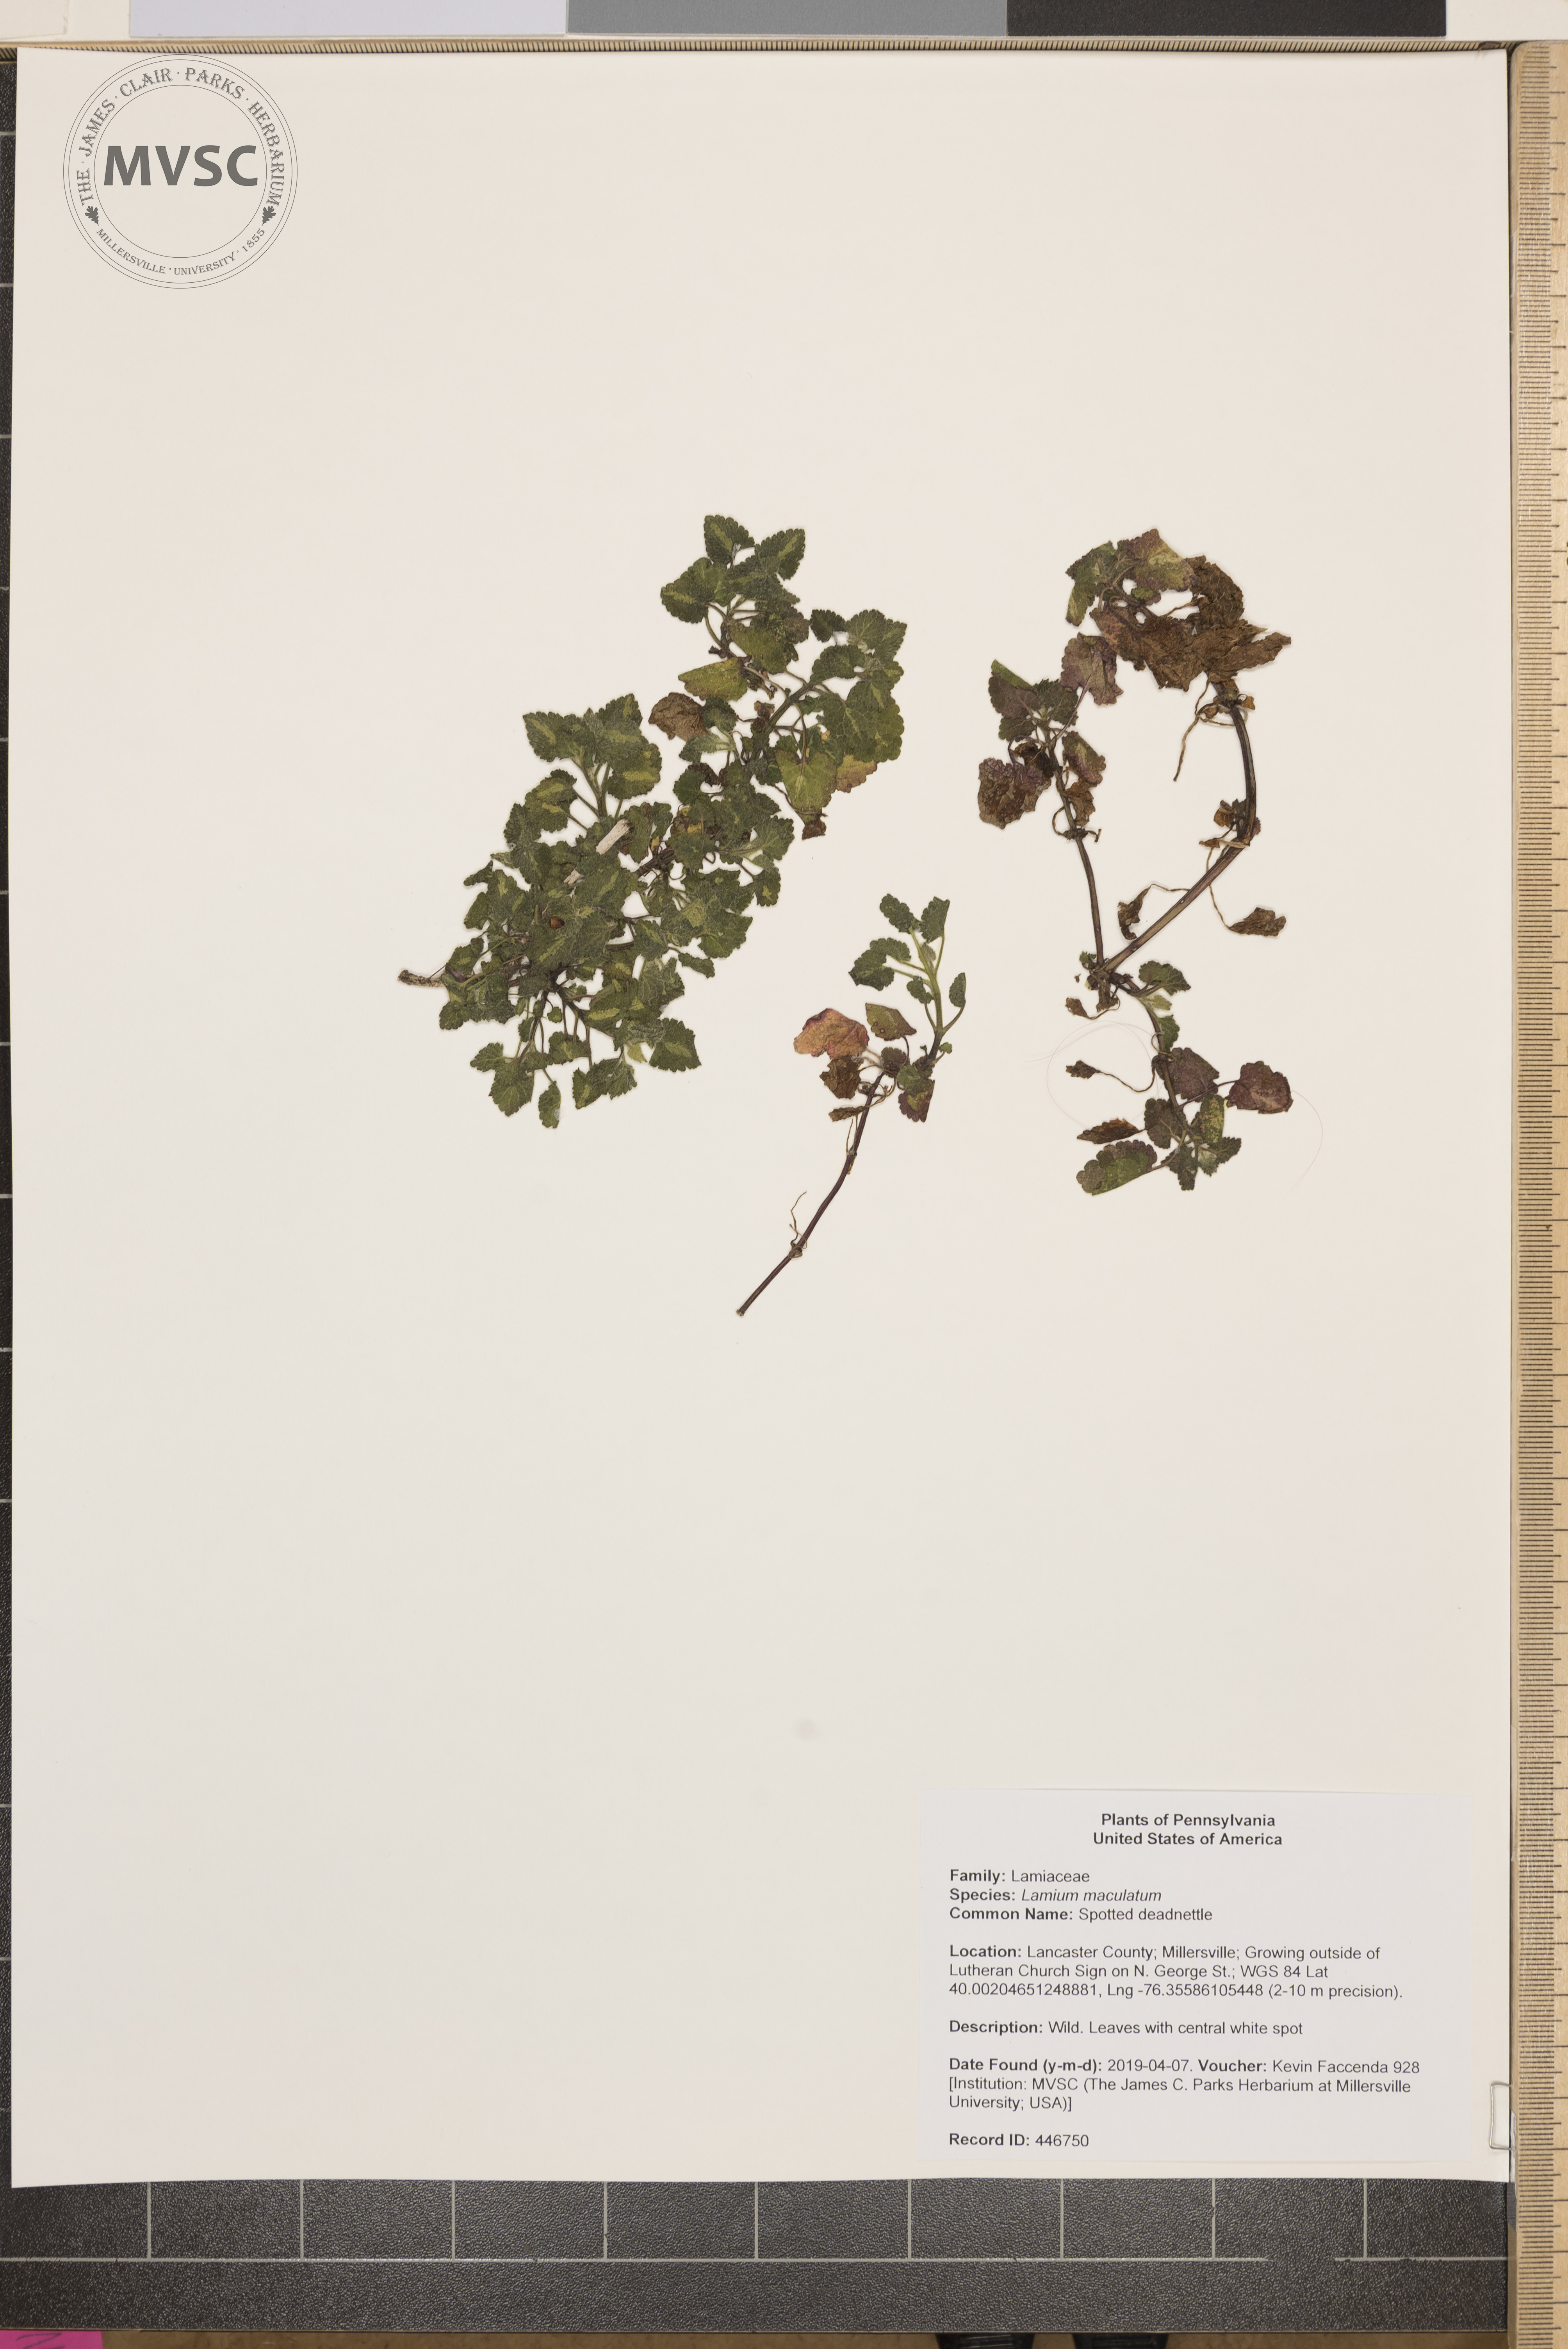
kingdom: Plantae
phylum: Tracheophyta
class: Magnoliopsida
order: Lamiales
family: Lamiaceae
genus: Lamium
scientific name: Lamium maculatum
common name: Spotted deadnettle
